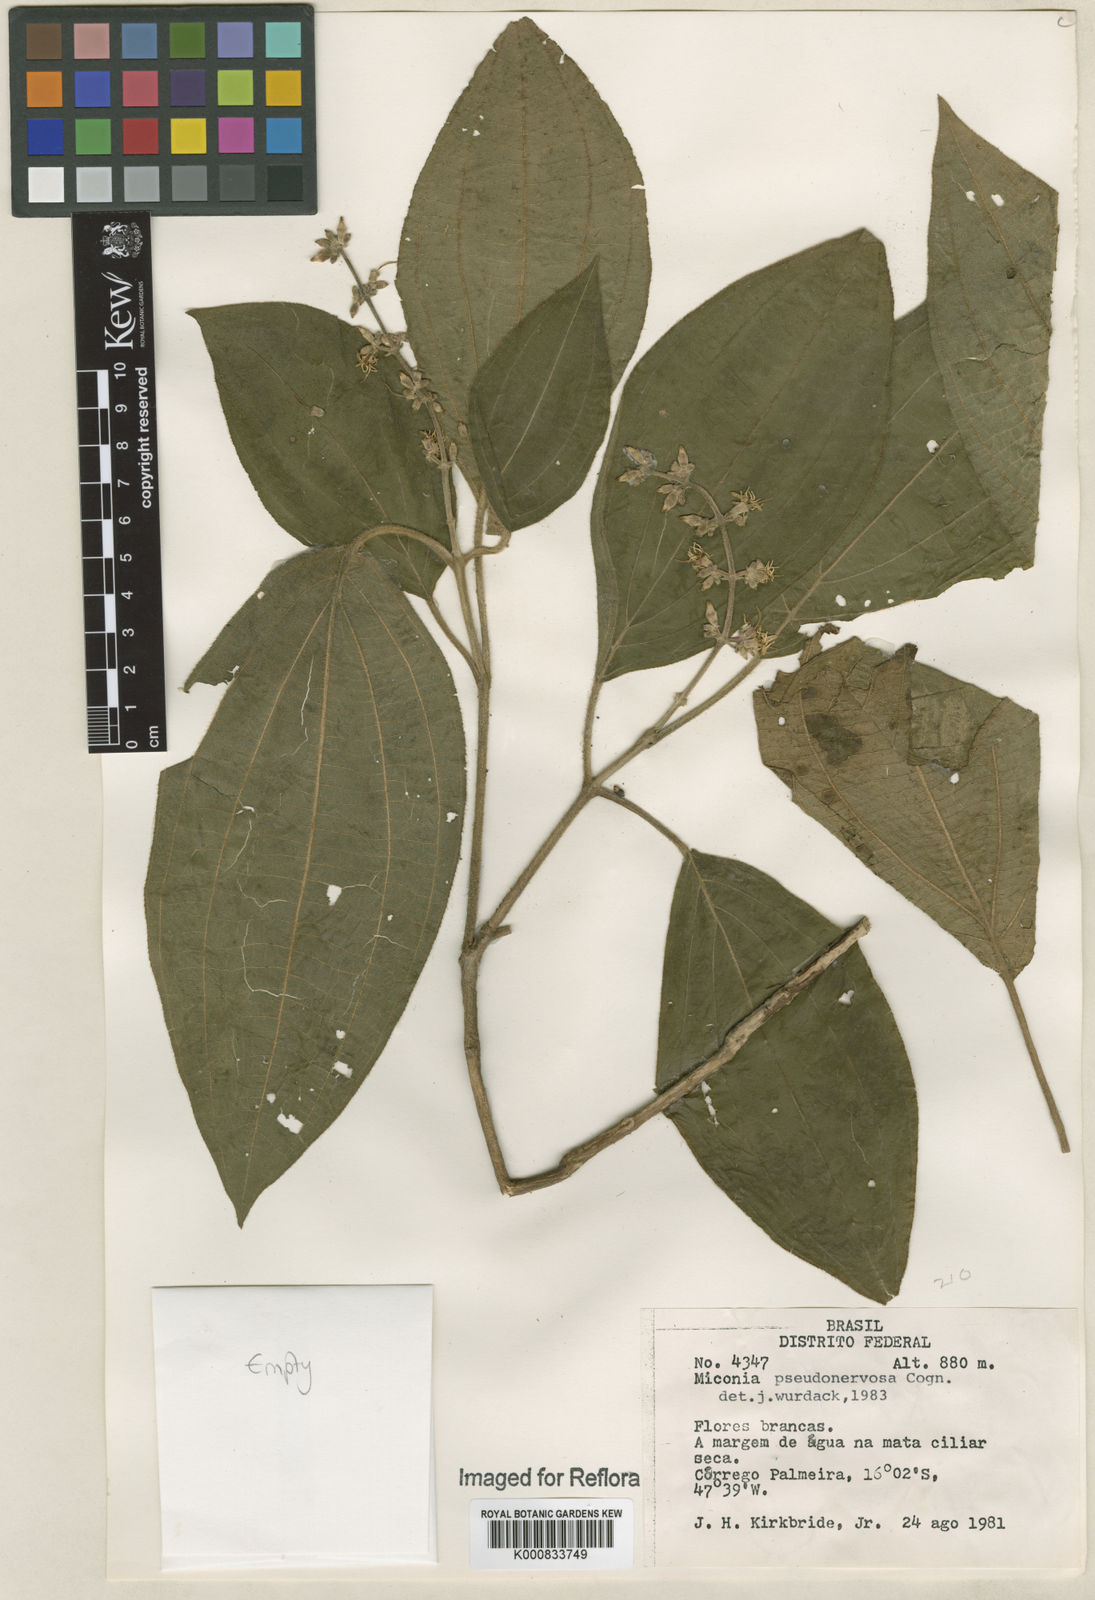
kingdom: Plantae
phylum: Tracheophyta
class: Magnoliopsida
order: Myrtales
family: Melastomataceae
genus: Miconia
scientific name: Miconia pseudonervosa
